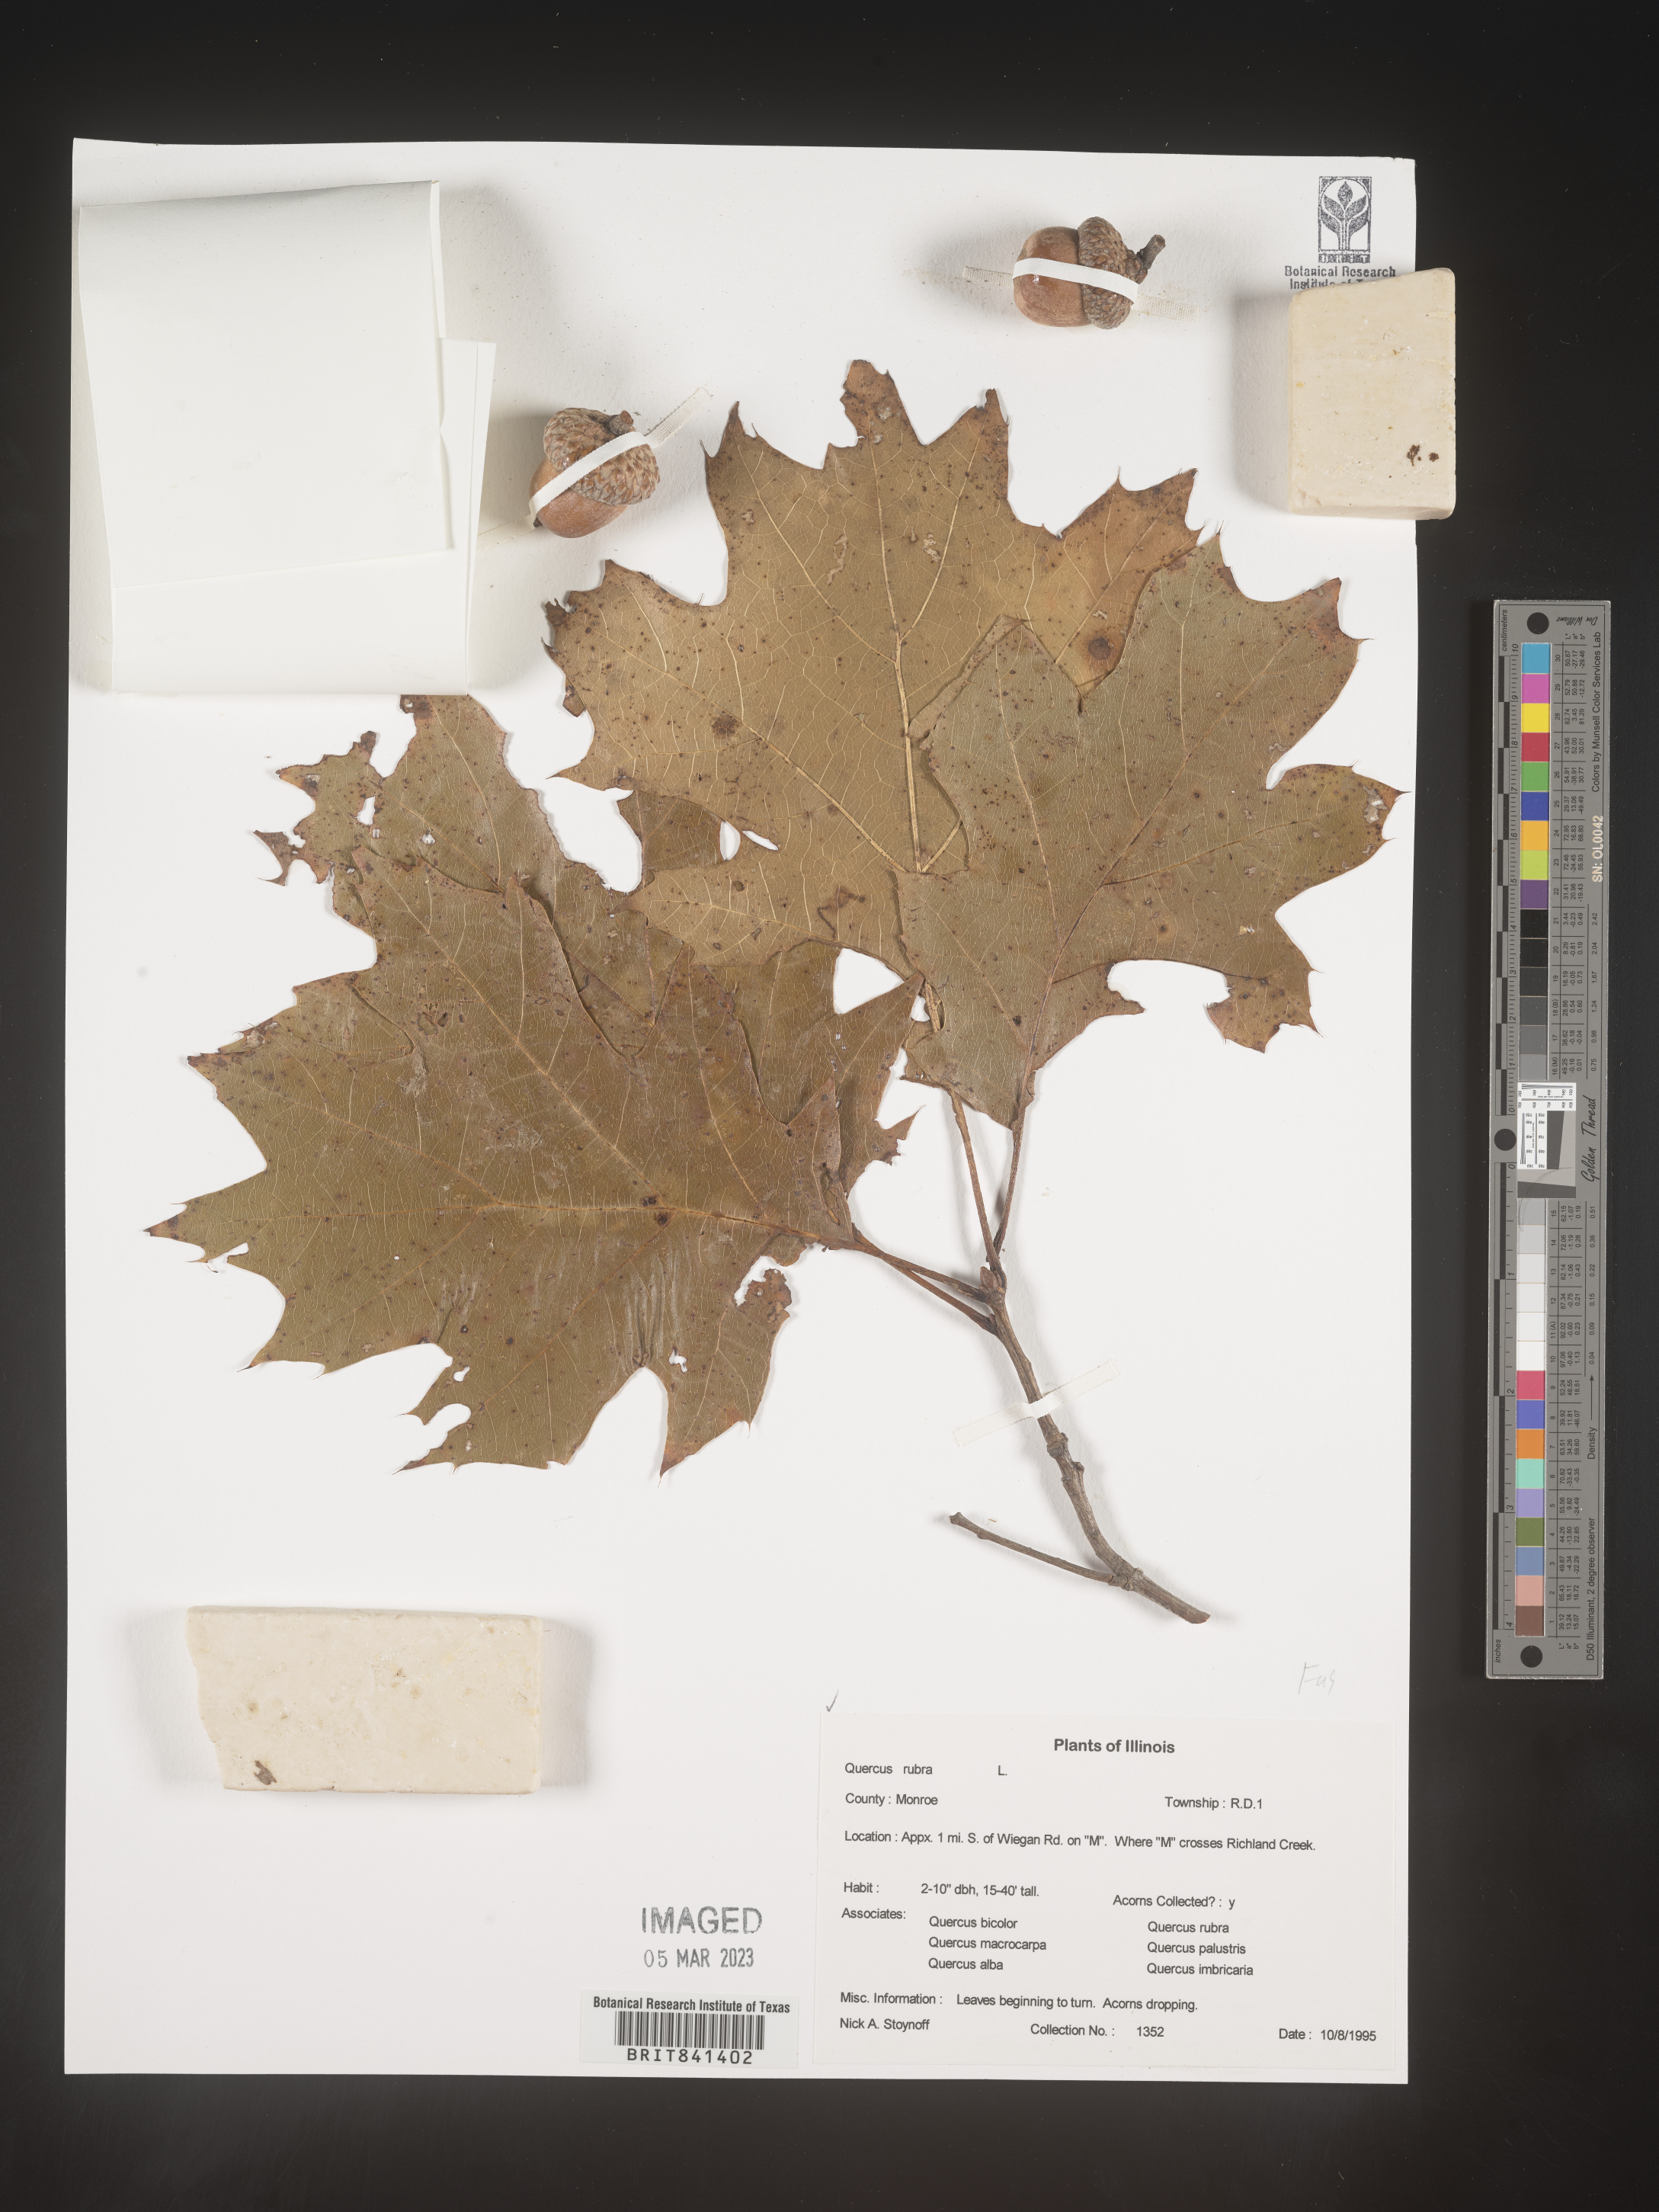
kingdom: Plantae
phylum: Tracheophyta
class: Magnoliopsida
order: Fagales
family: Fagaceae
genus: Quercus
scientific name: Quercus rubra
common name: Red oak
